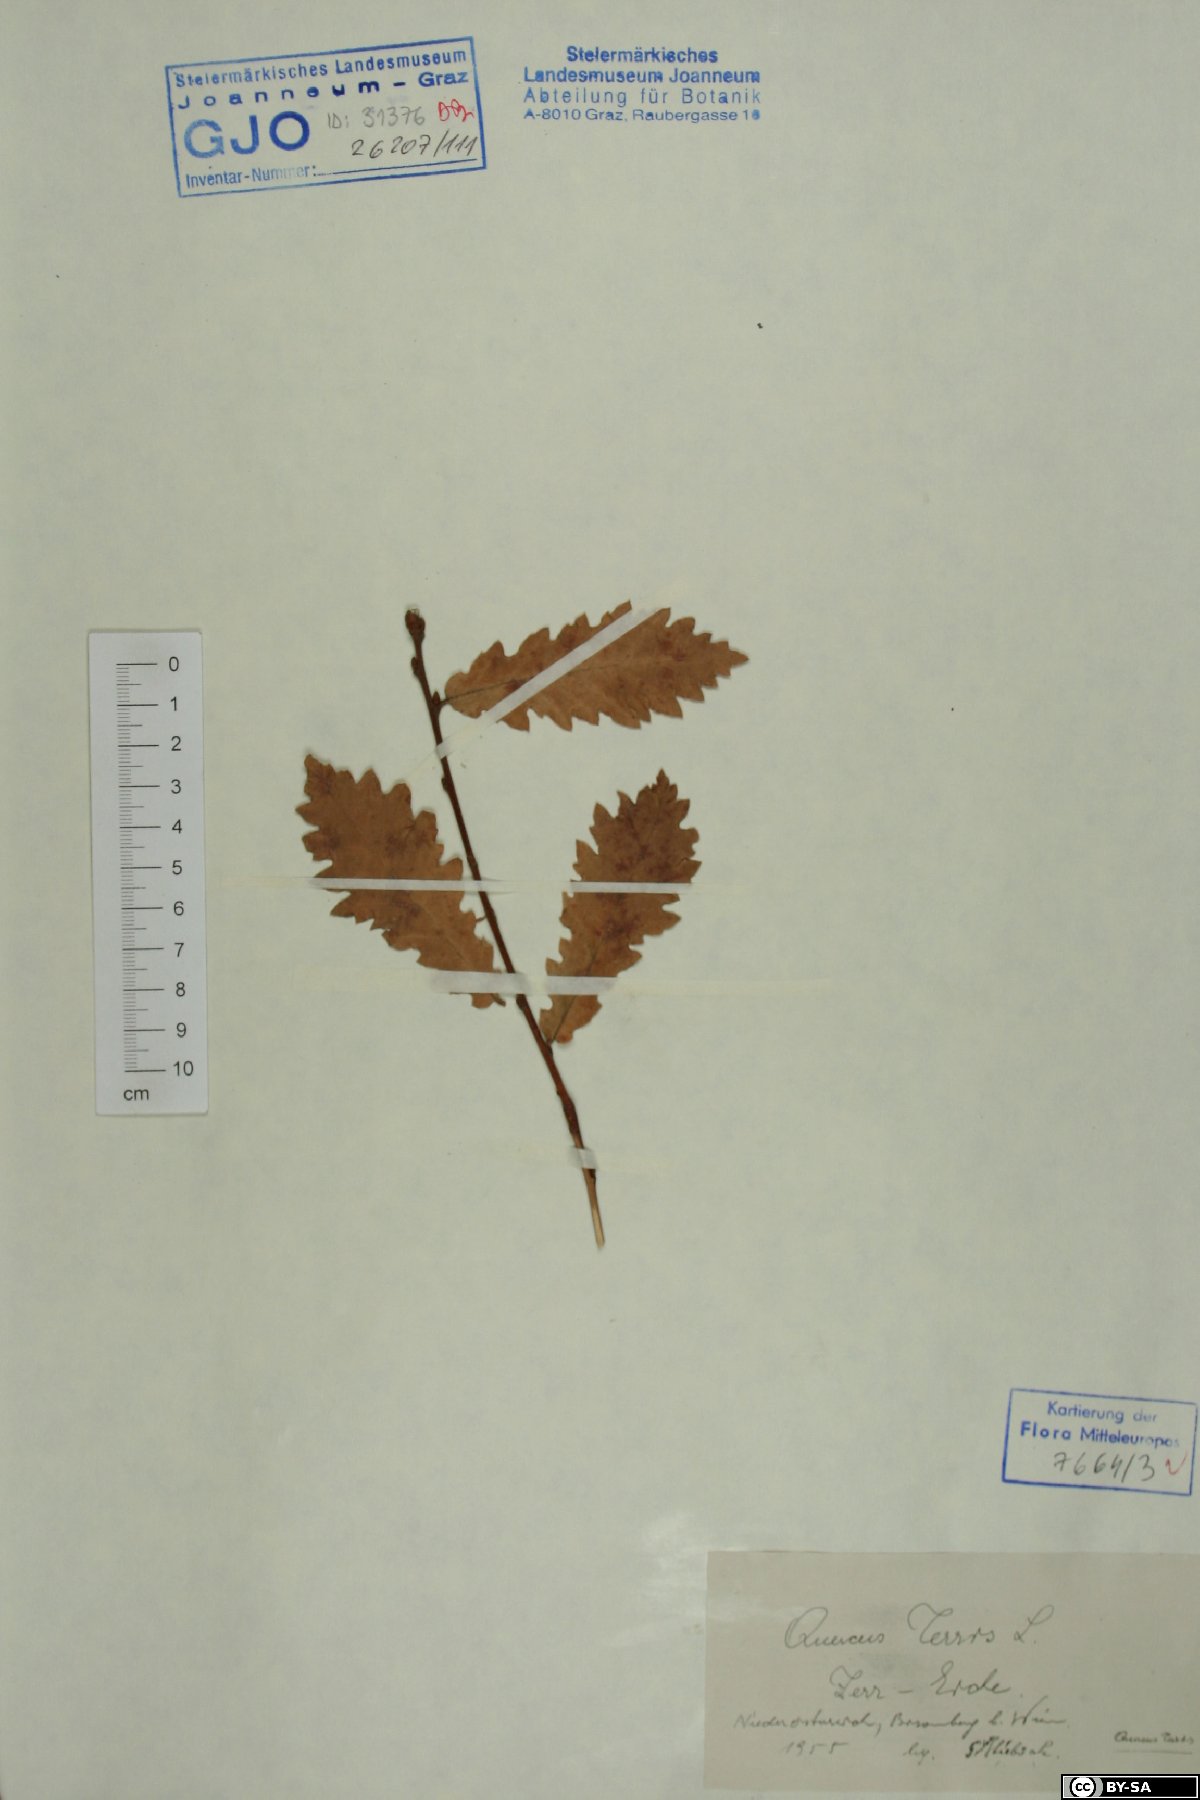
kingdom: Plantae
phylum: Tracheophyta
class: Magnoliopsida
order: Fagales
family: Fagaceae
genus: Quercus
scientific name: Quercus cerris
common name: Turkey oak
